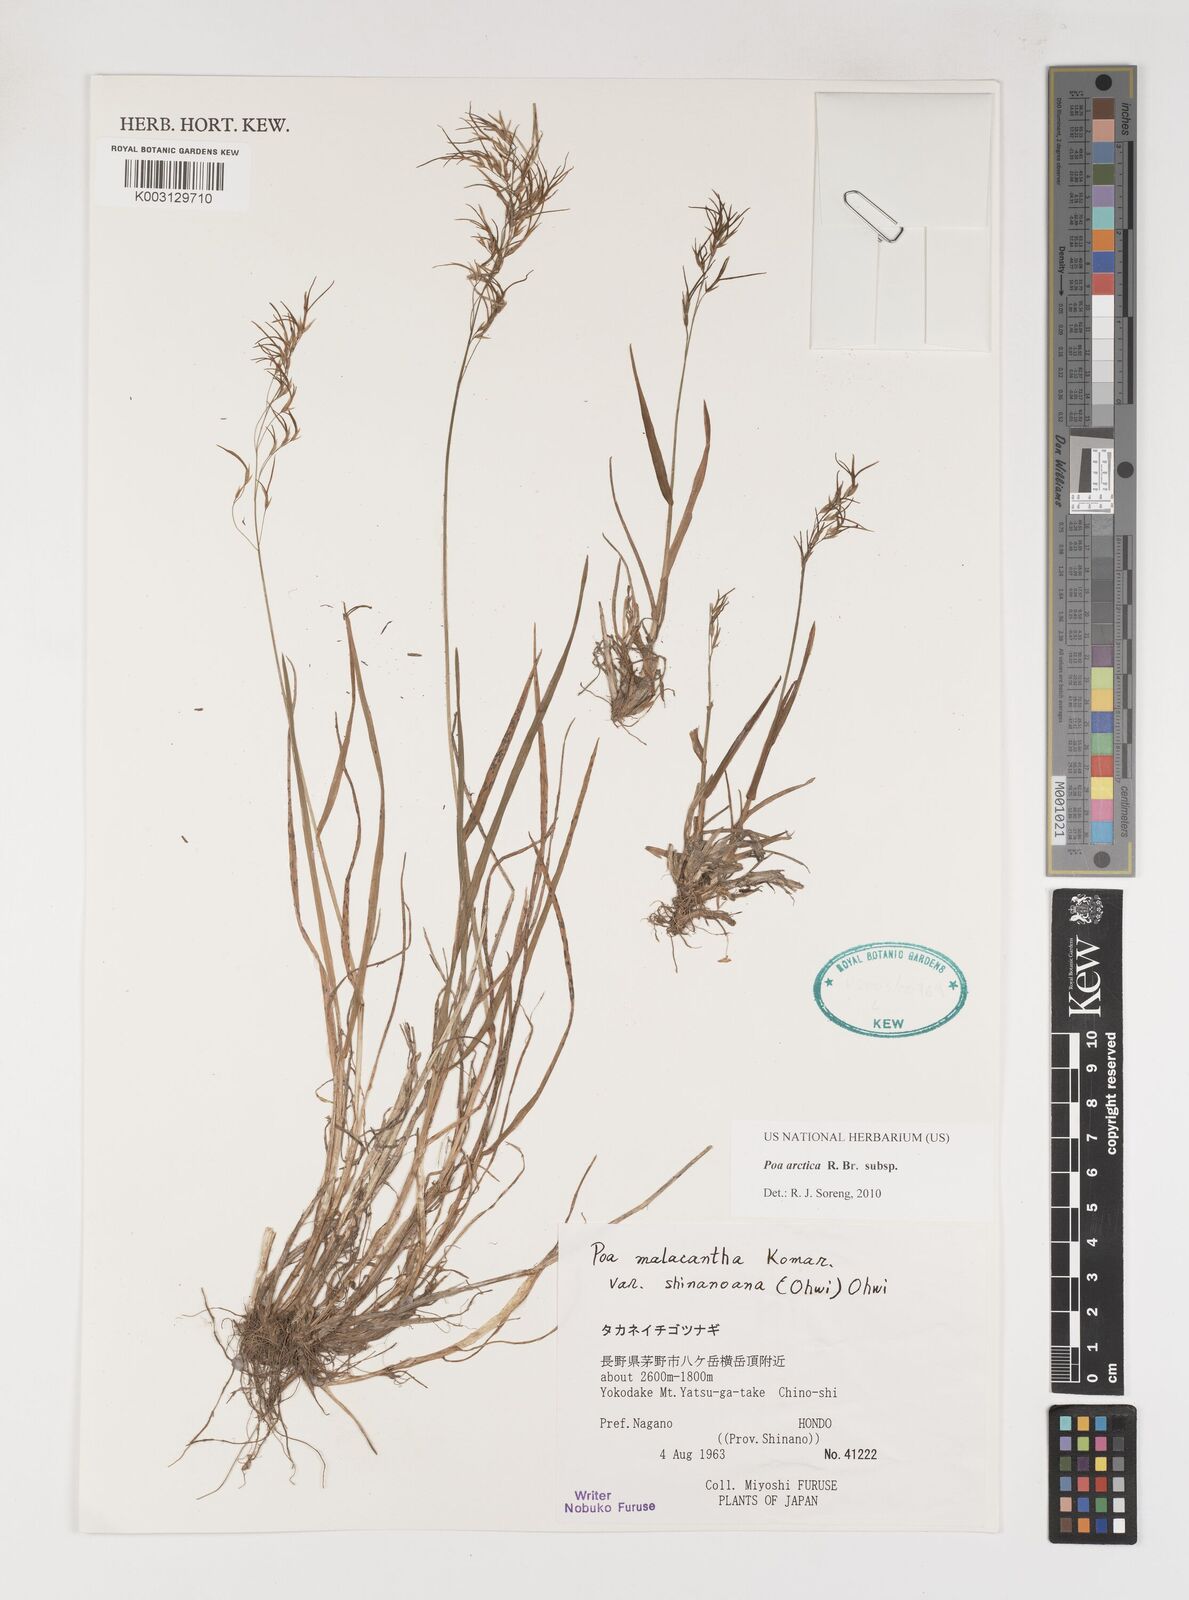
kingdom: Plantae
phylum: Tracheophyta
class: Liliopsida
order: Poales
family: Poaceae
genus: Poa
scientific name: Poa arctica
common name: Arctic bluegrass
